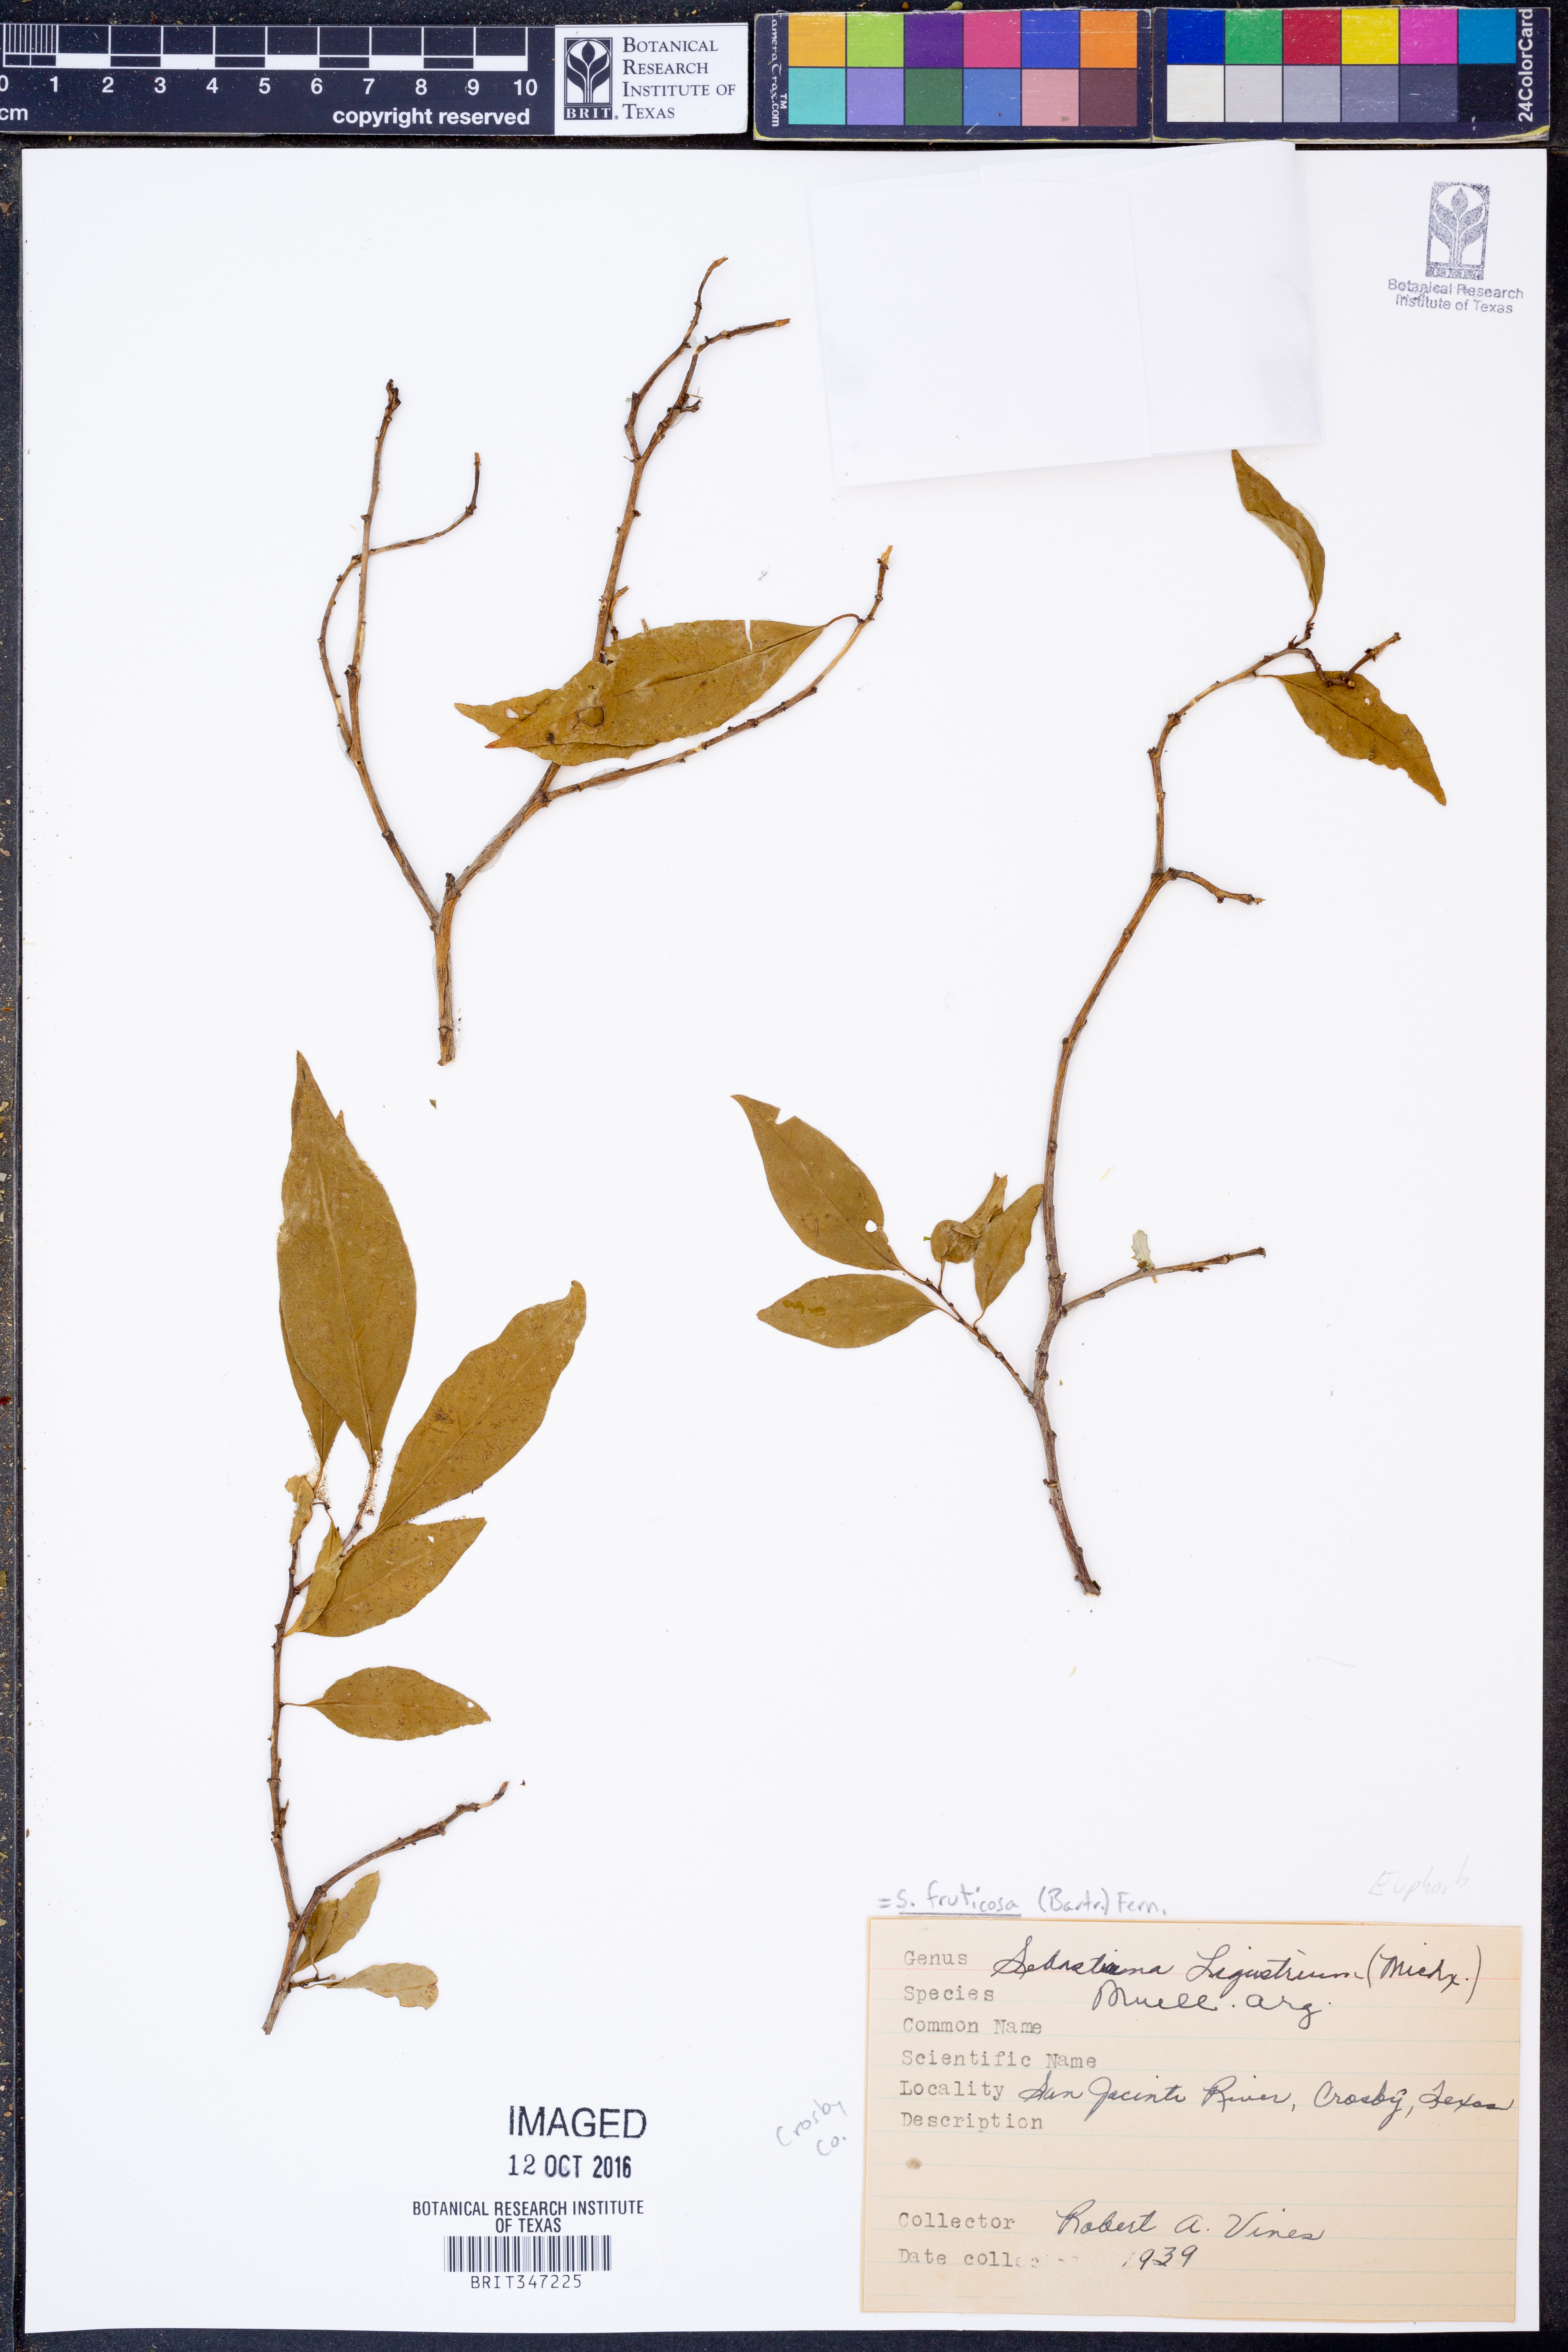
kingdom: Plantae
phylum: Tracheophyta
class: Magnoliopsida
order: Malpighiales
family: Euphorbiaceae
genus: Ditrysinia
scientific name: Ditrysinia fruticosa
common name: Gulf sebastian-bush
